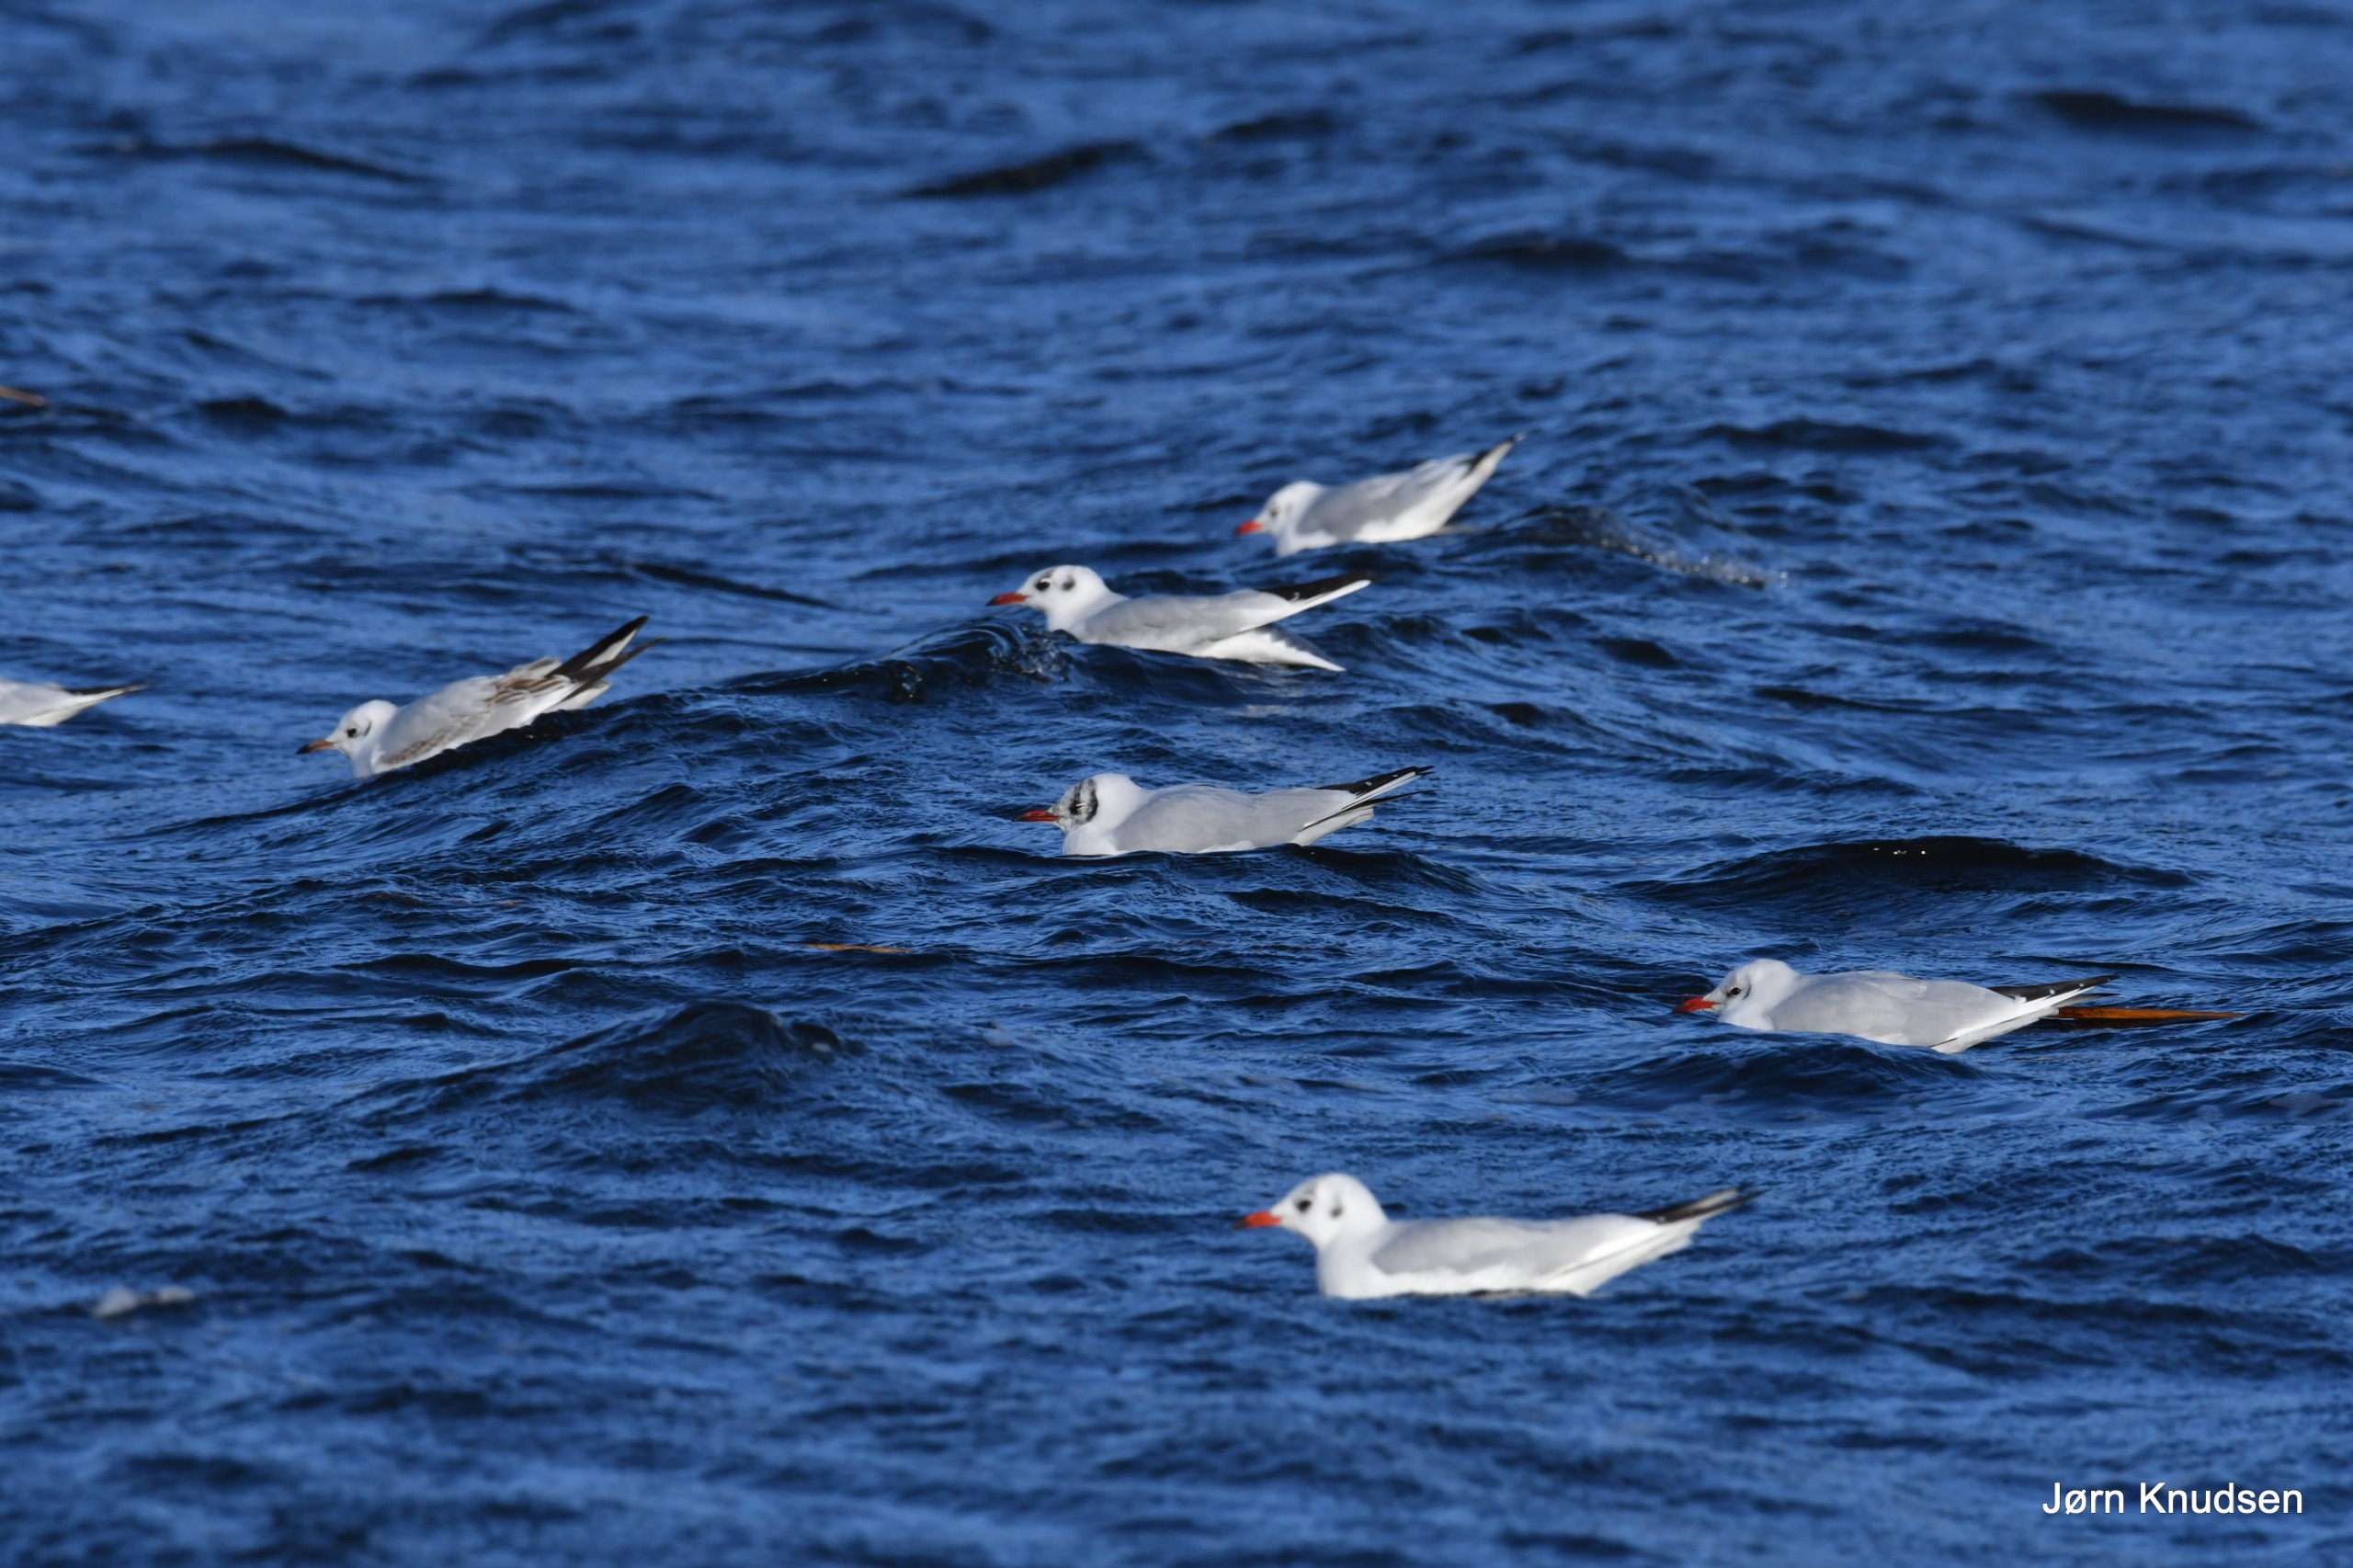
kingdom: Animalia
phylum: Chordata
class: Aves
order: Charadriiformes
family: Laridae
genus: Chroicocephalus
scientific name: Chroicocephalus ridibundus
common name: Hættemåge
